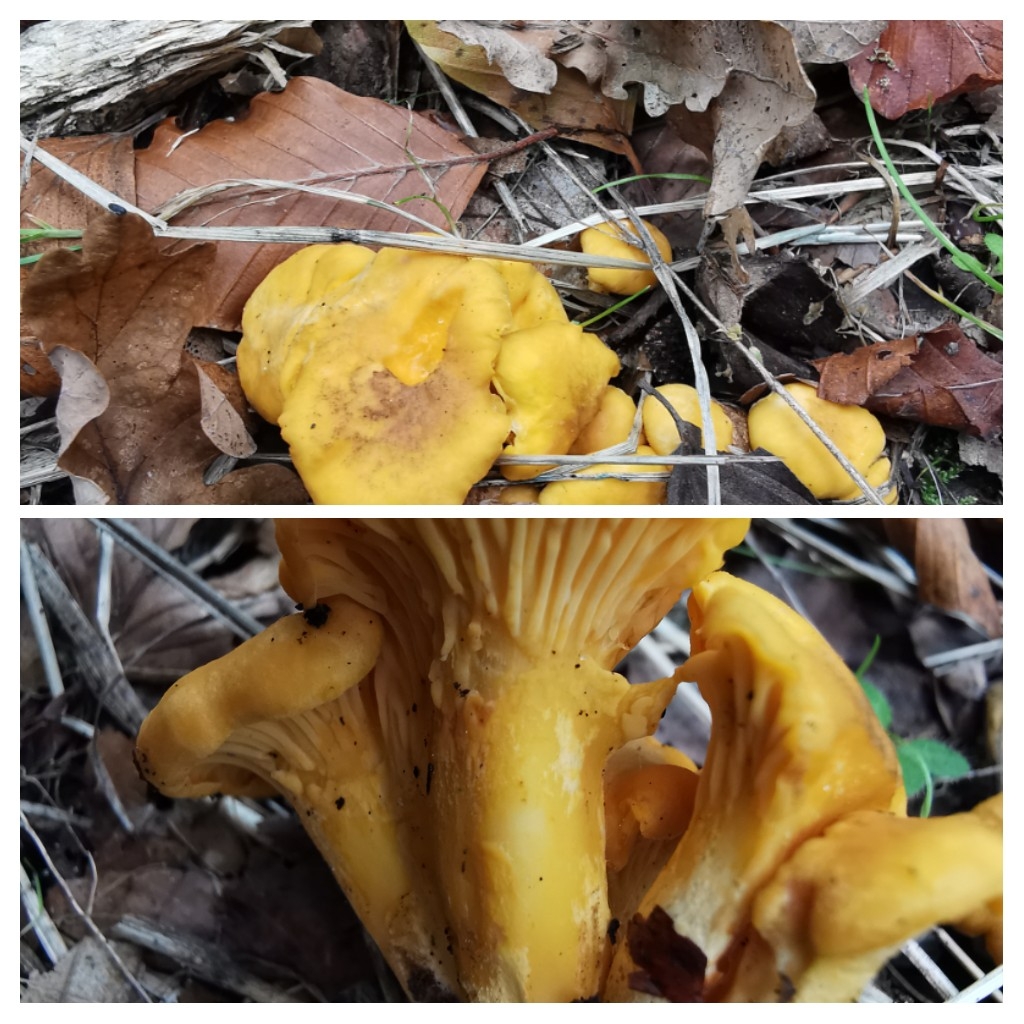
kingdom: Fungi
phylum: Basidiomycota
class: Agaricomycetes
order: Cantharellales
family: Hydnaceae
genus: Cantharellus
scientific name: Cantharellus amethysteus
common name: ametyst-kantarel
